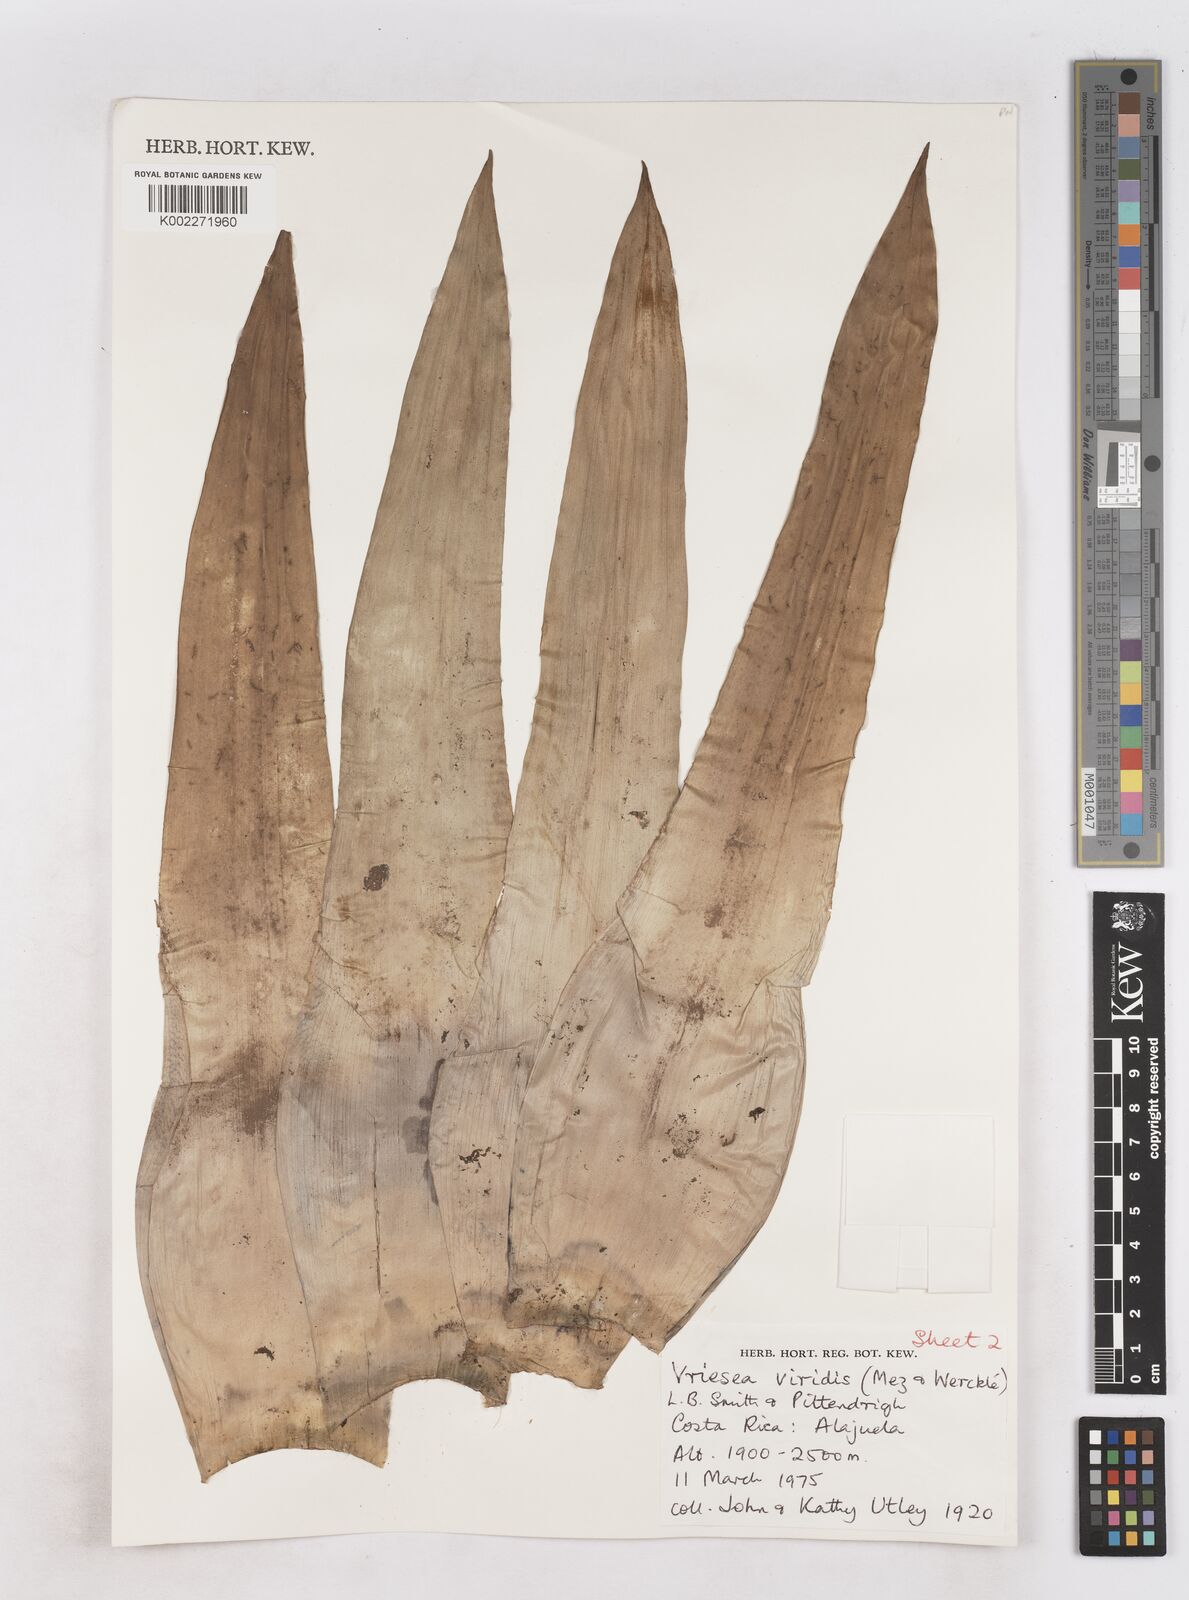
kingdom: Plantae
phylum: Tracheophyta
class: Liliopsida
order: Poales
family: Bromeliaceae
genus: Werauhia
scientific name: Werauhia viridis
